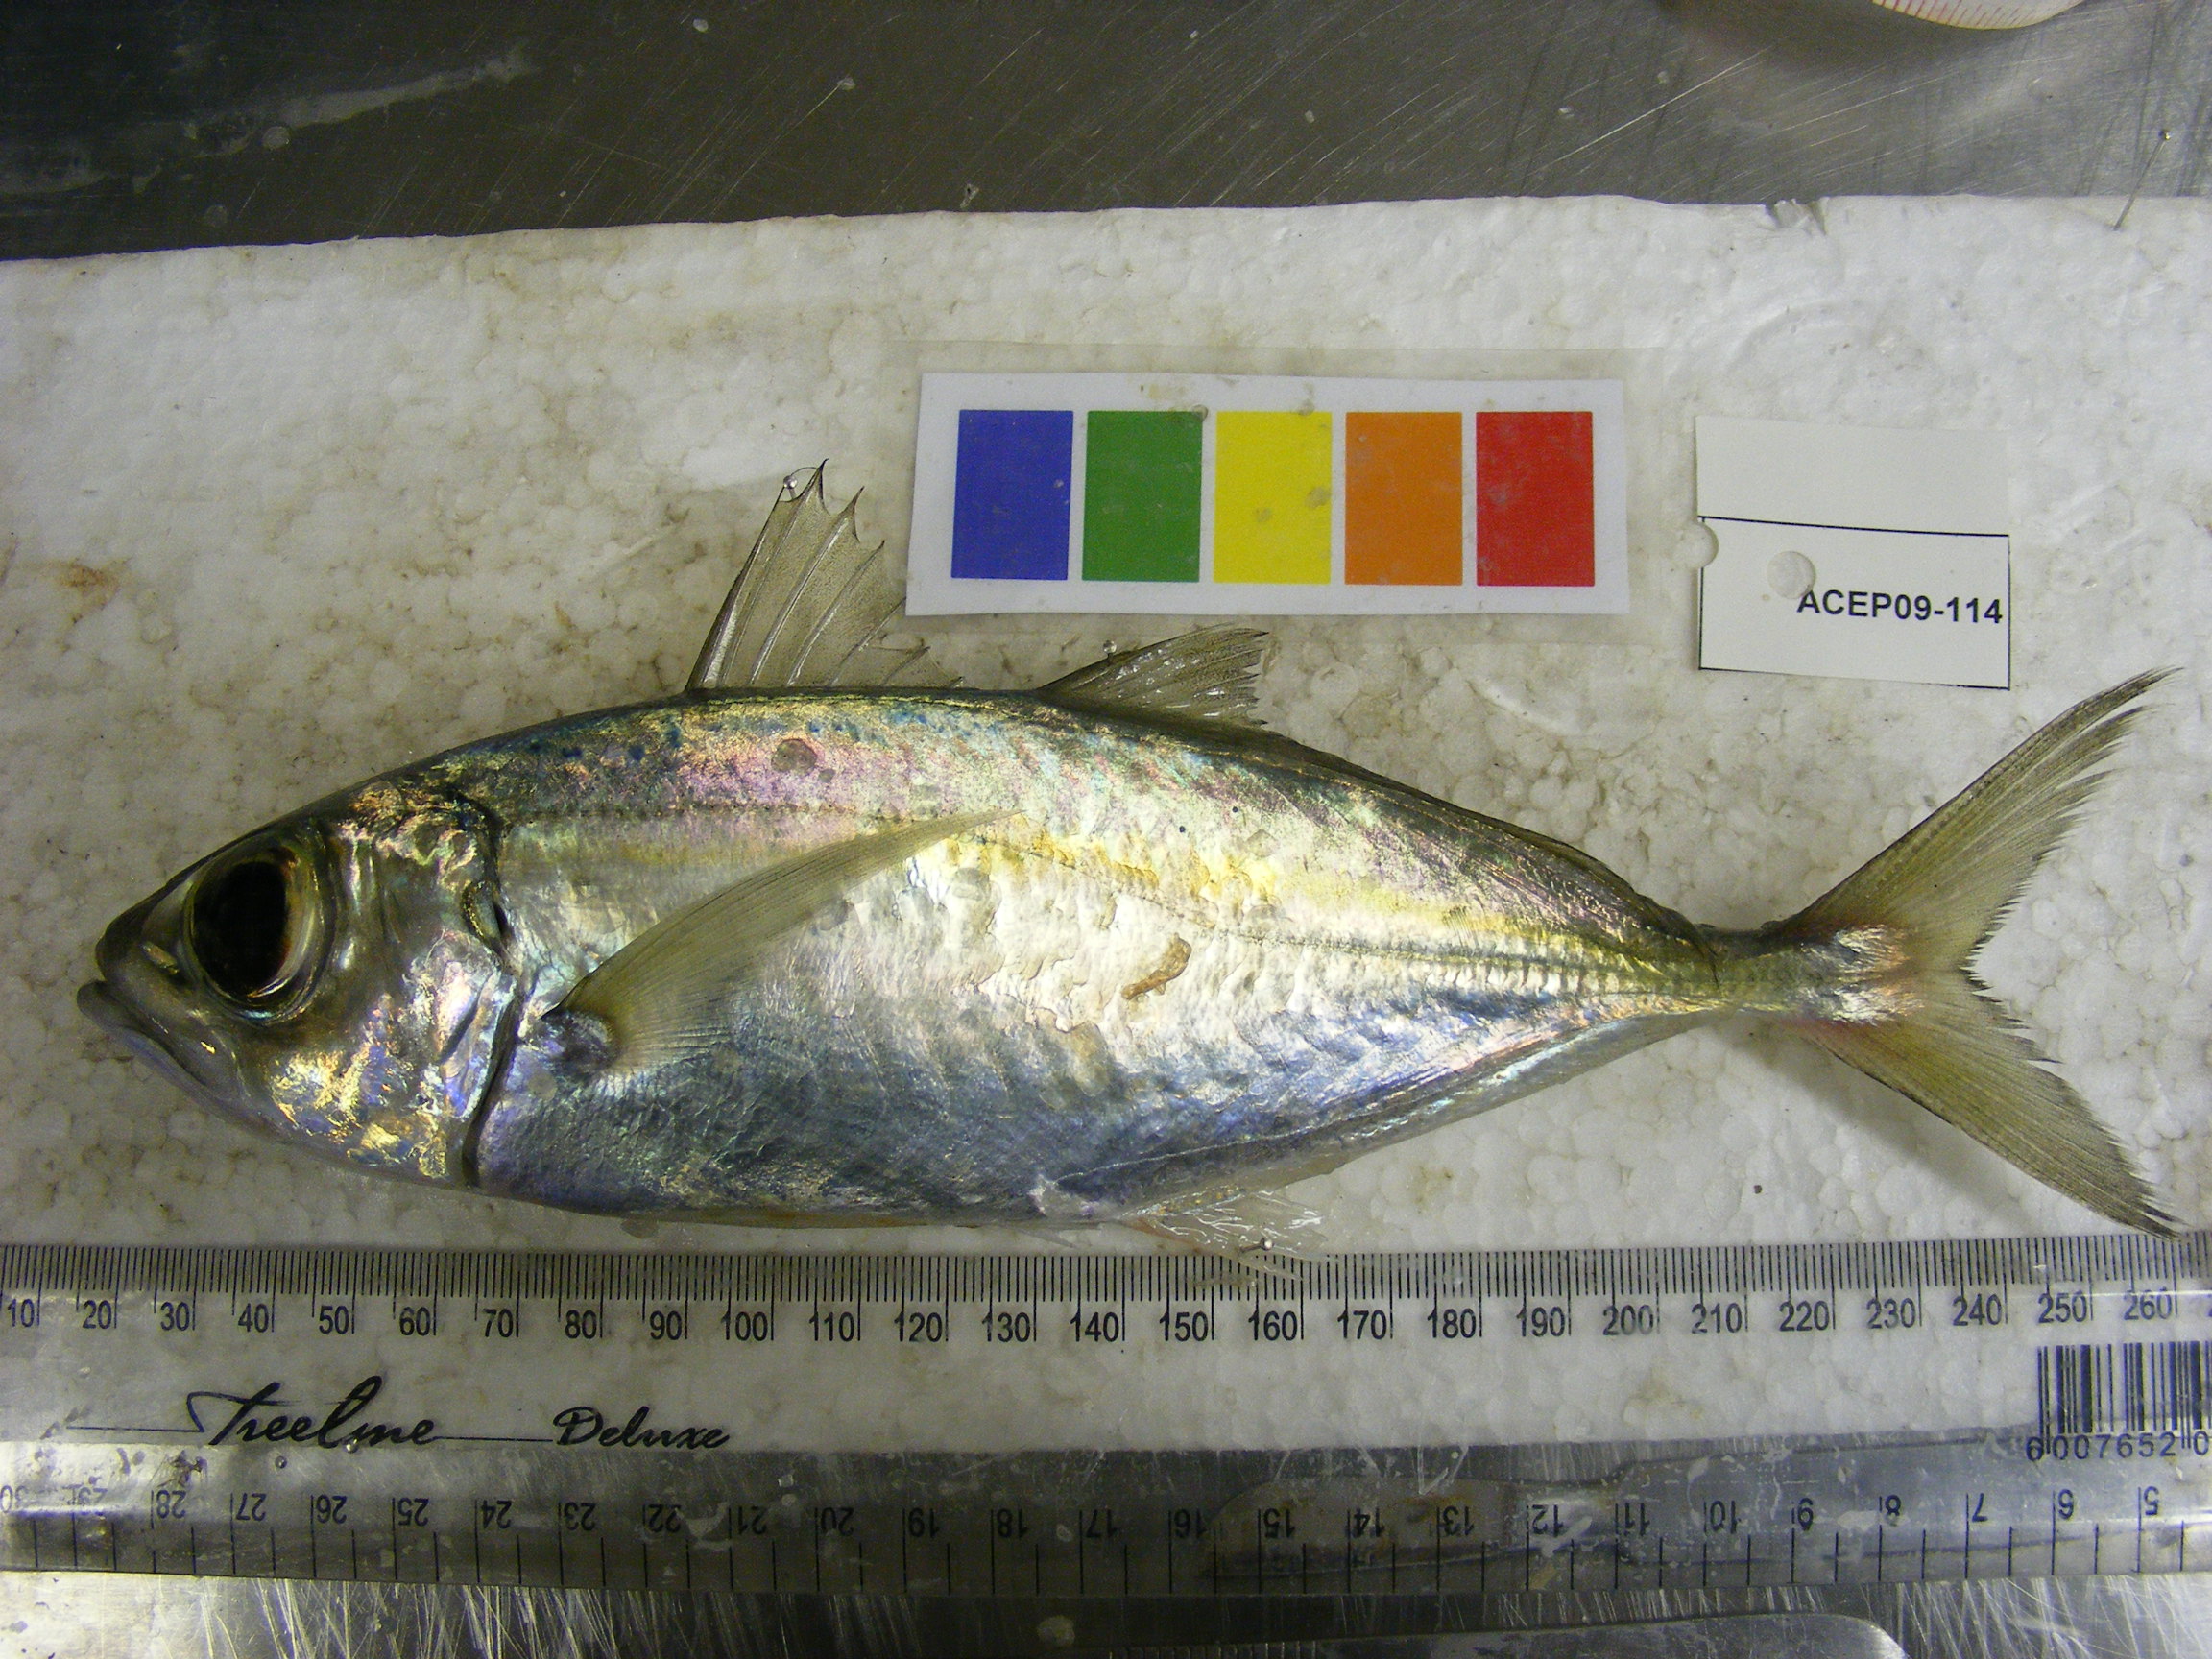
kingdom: Animalia
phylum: Chordata
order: Perciformes
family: Carangidae
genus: Decapterus
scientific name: Decapterus
